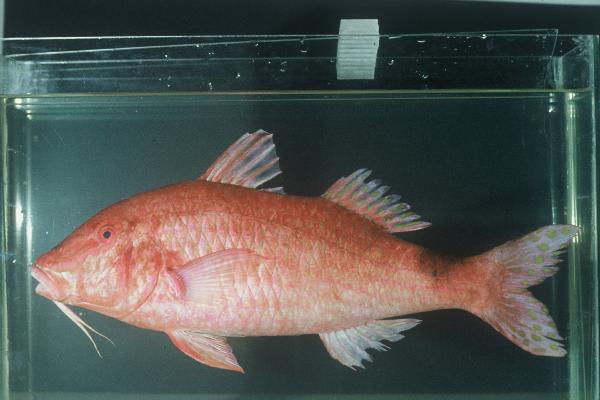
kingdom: Animalia
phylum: Chordata
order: Perciformes
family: Mullidae
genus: Parupeneus
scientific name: Parupeneus rubescens
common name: Rosy goatfish
